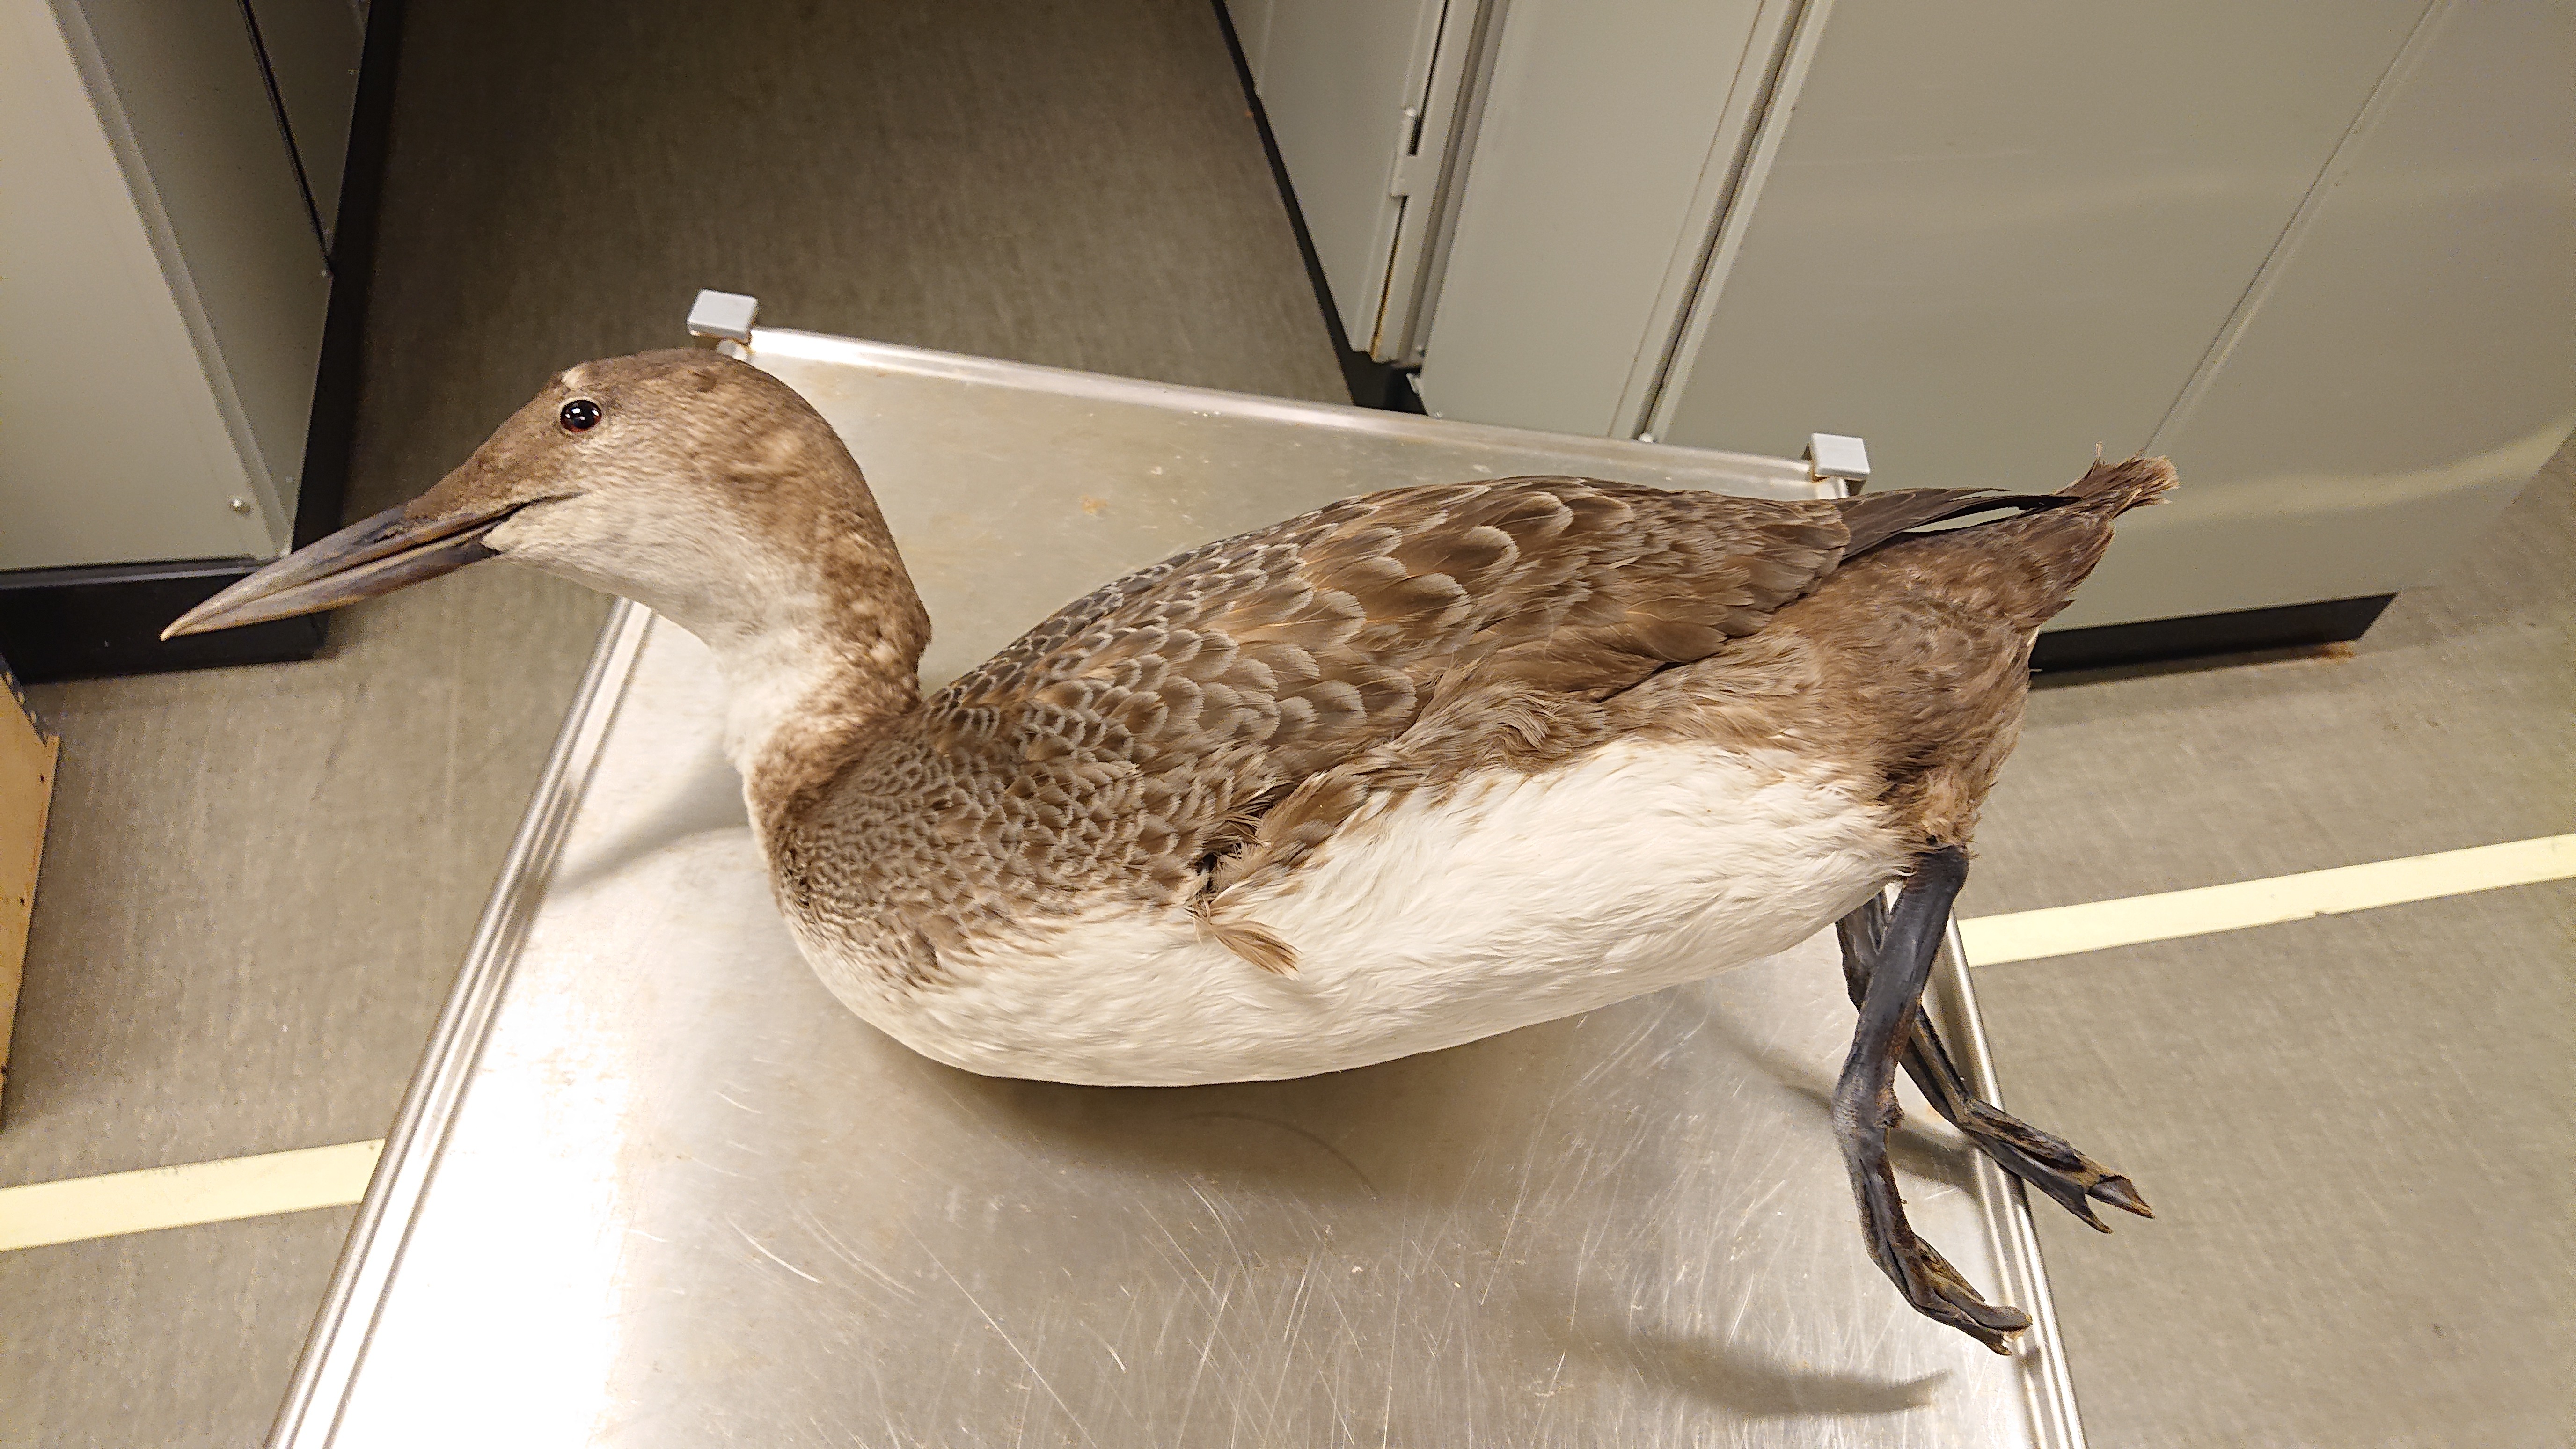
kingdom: Animalia
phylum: Chordata
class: Aves
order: Gaviiformes
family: Gaviidae
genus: Gavia
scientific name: Gavia immer
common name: Common loon
